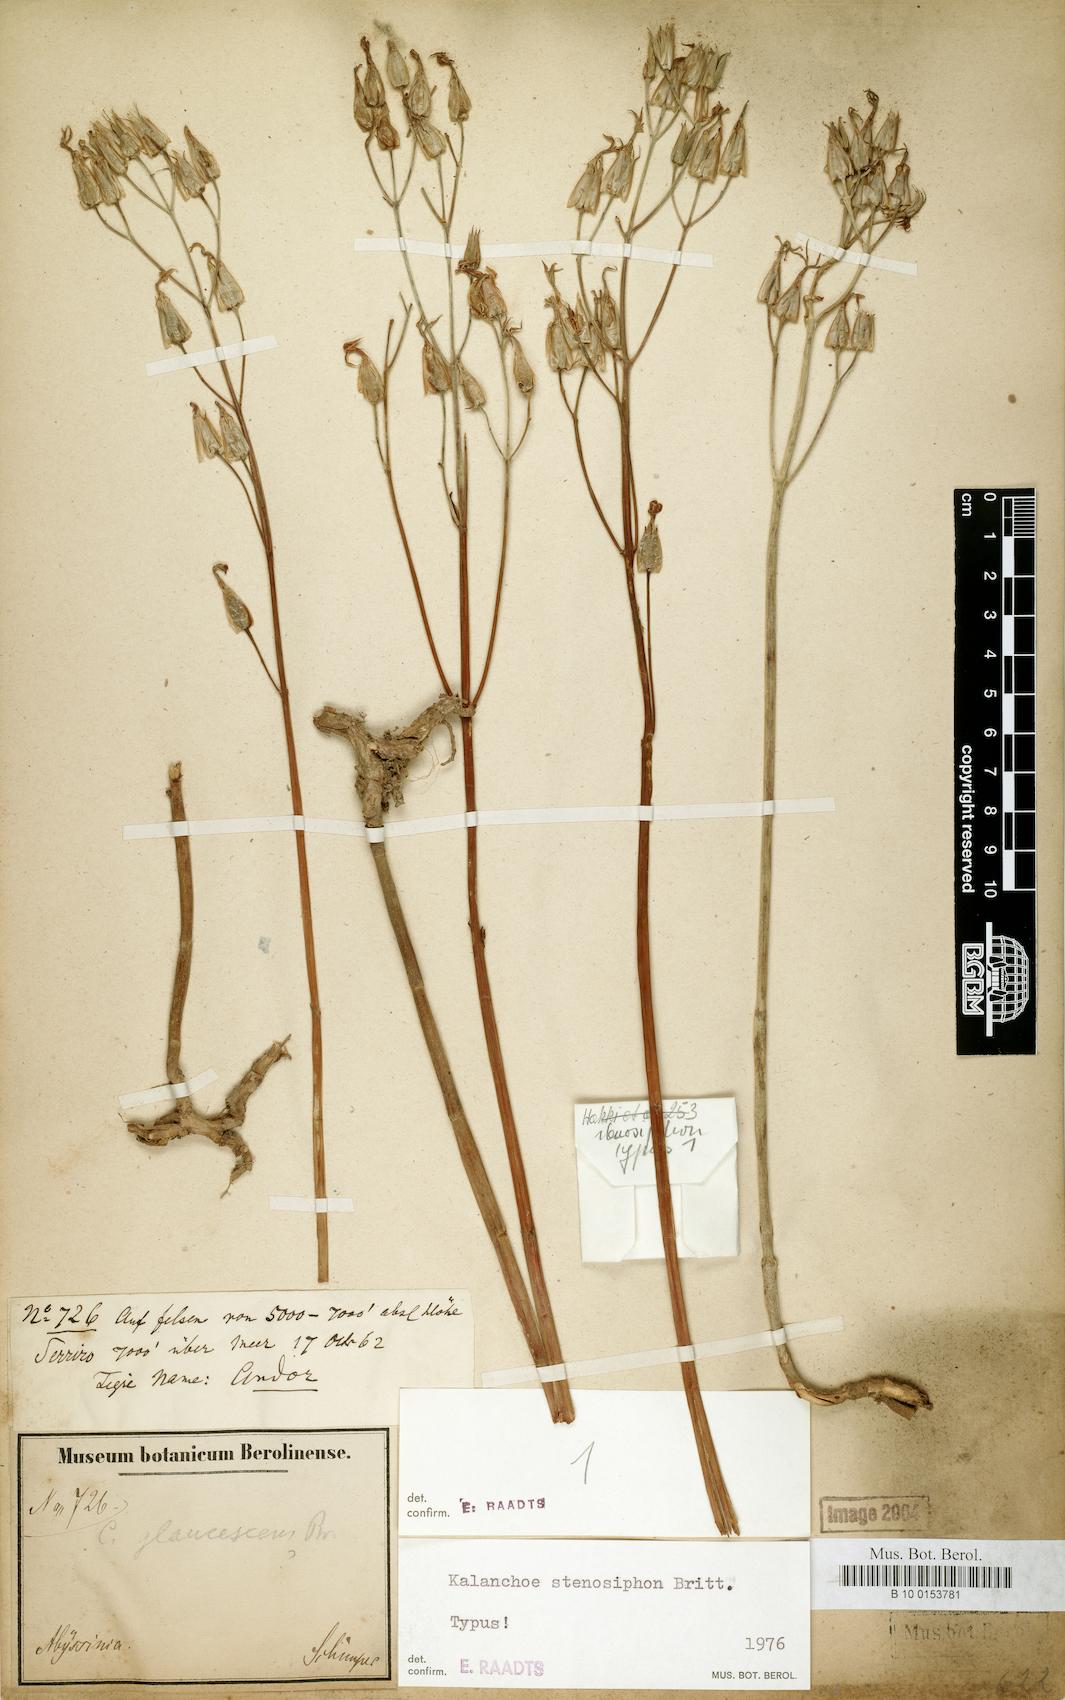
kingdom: Plantae
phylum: Tracheophyta
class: Magnoliopsida
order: Saxifragales
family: Crassulaceae
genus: Kalanchoe
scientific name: Kalanchoe stenosiphon
